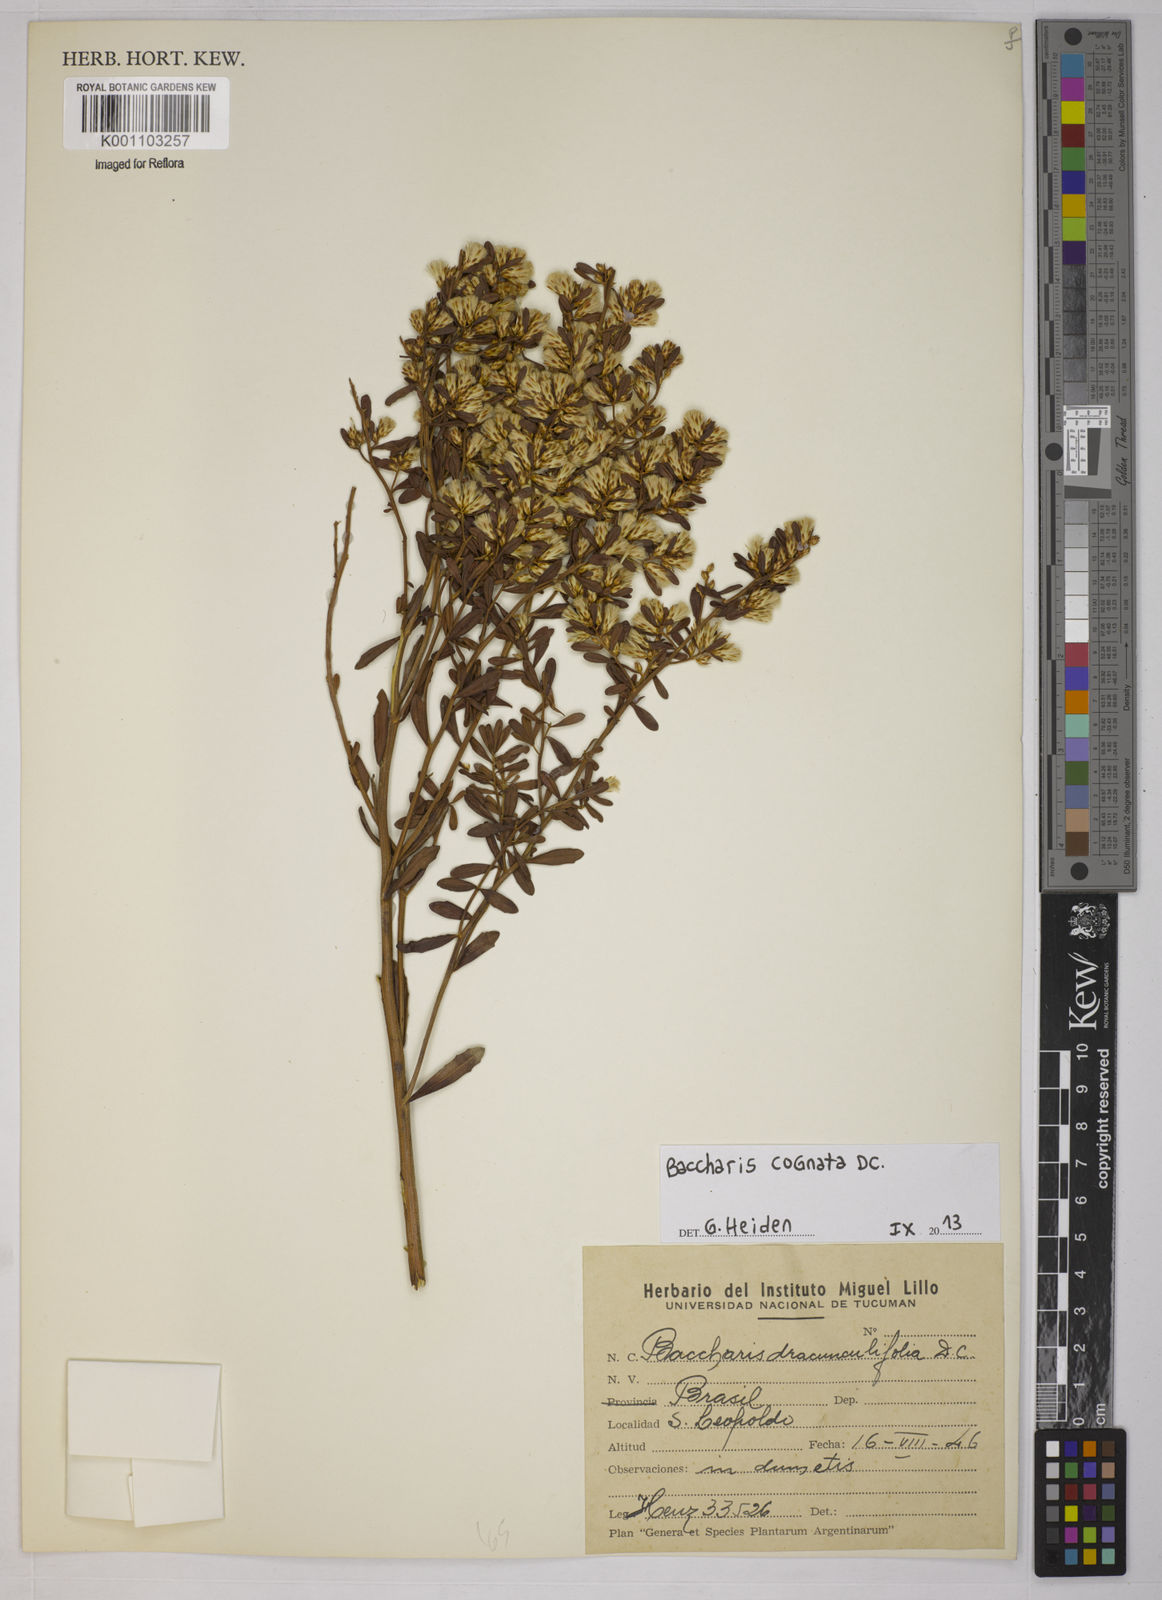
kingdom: Plantae
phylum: Tracheophyta
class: Magnoliopsida
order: Asterales
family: Asteraceae
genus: Baccharis
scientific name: Baccharis cognata
